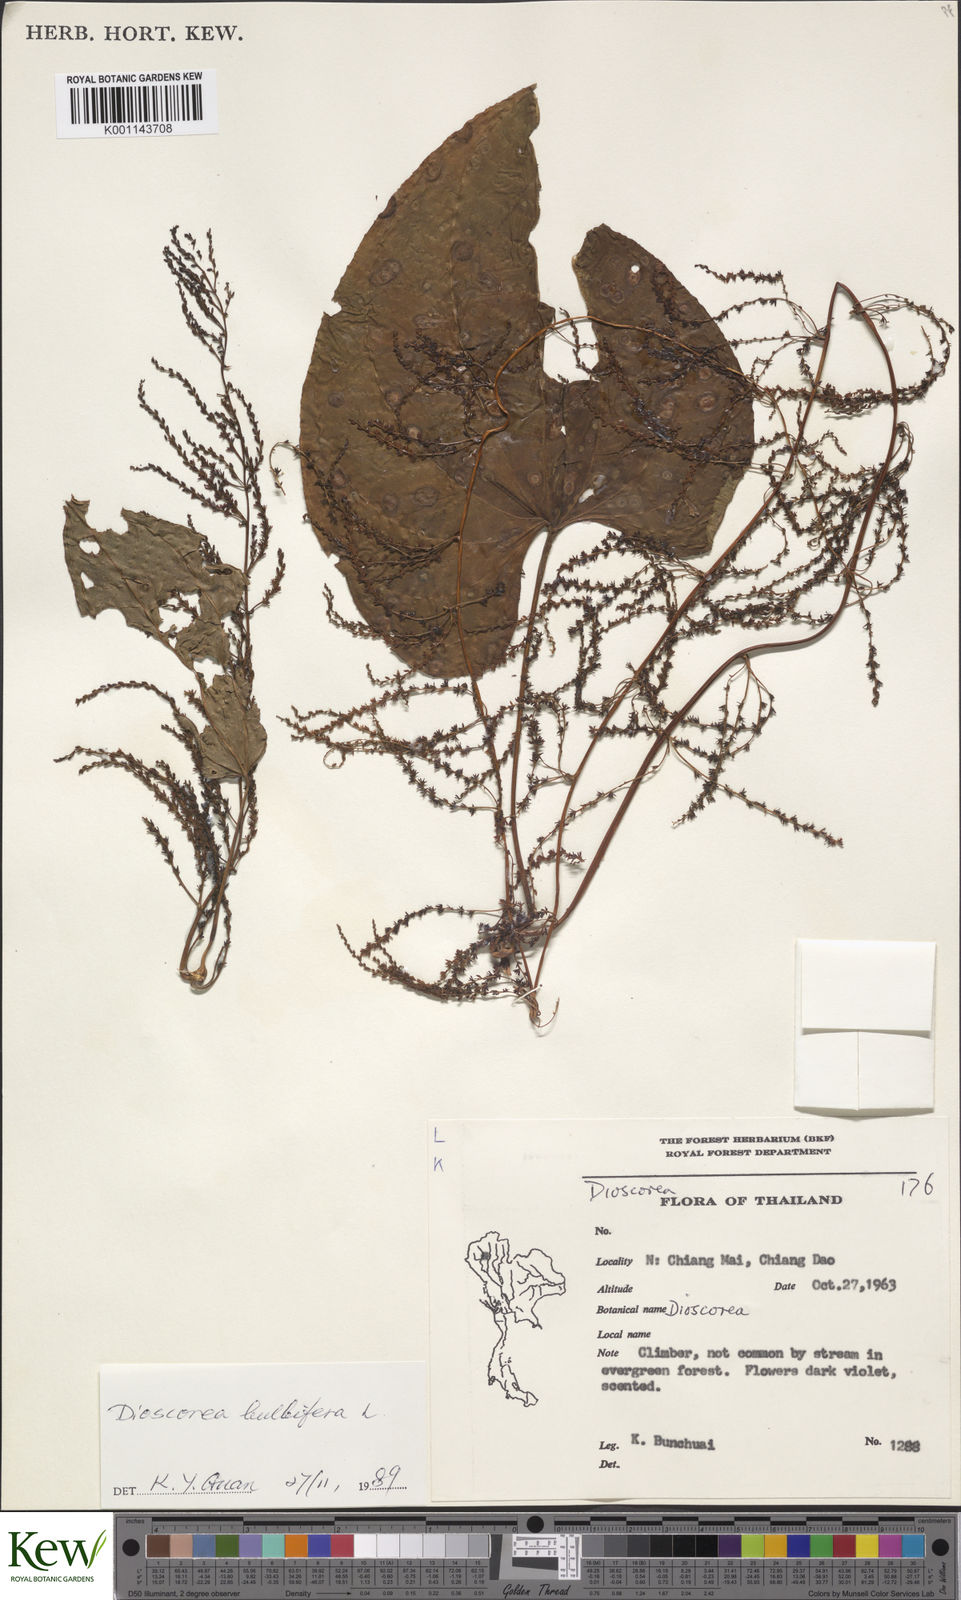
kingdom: Plantae
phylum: Tracheophyta
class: Liliopsida
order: Dioscoreales
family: Dioscoreaceae
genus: Dioscorea
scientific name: Dioscorea bulbifera
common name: Air yam
